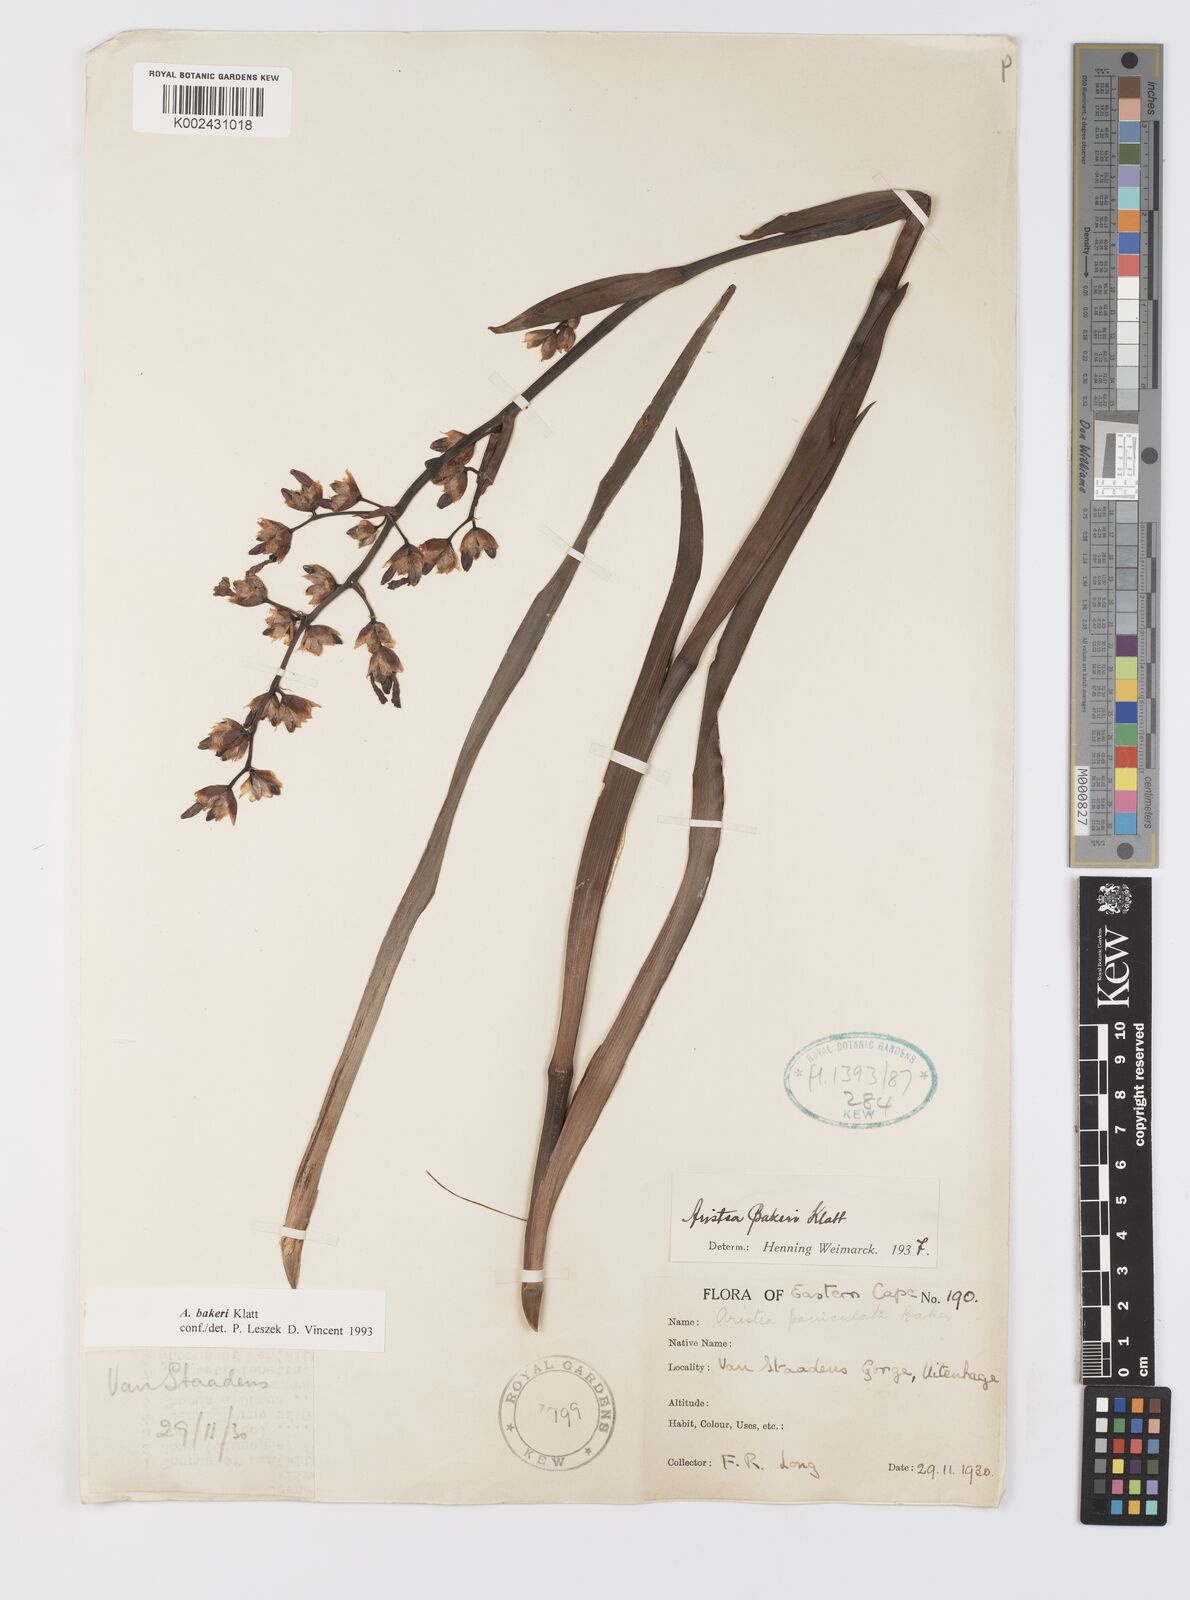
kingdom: Plantae
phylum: Tracheophyta
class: Liliopsida
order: Asparagales
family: Iridaceae
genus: Aristea
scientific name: Aristea bakeri
